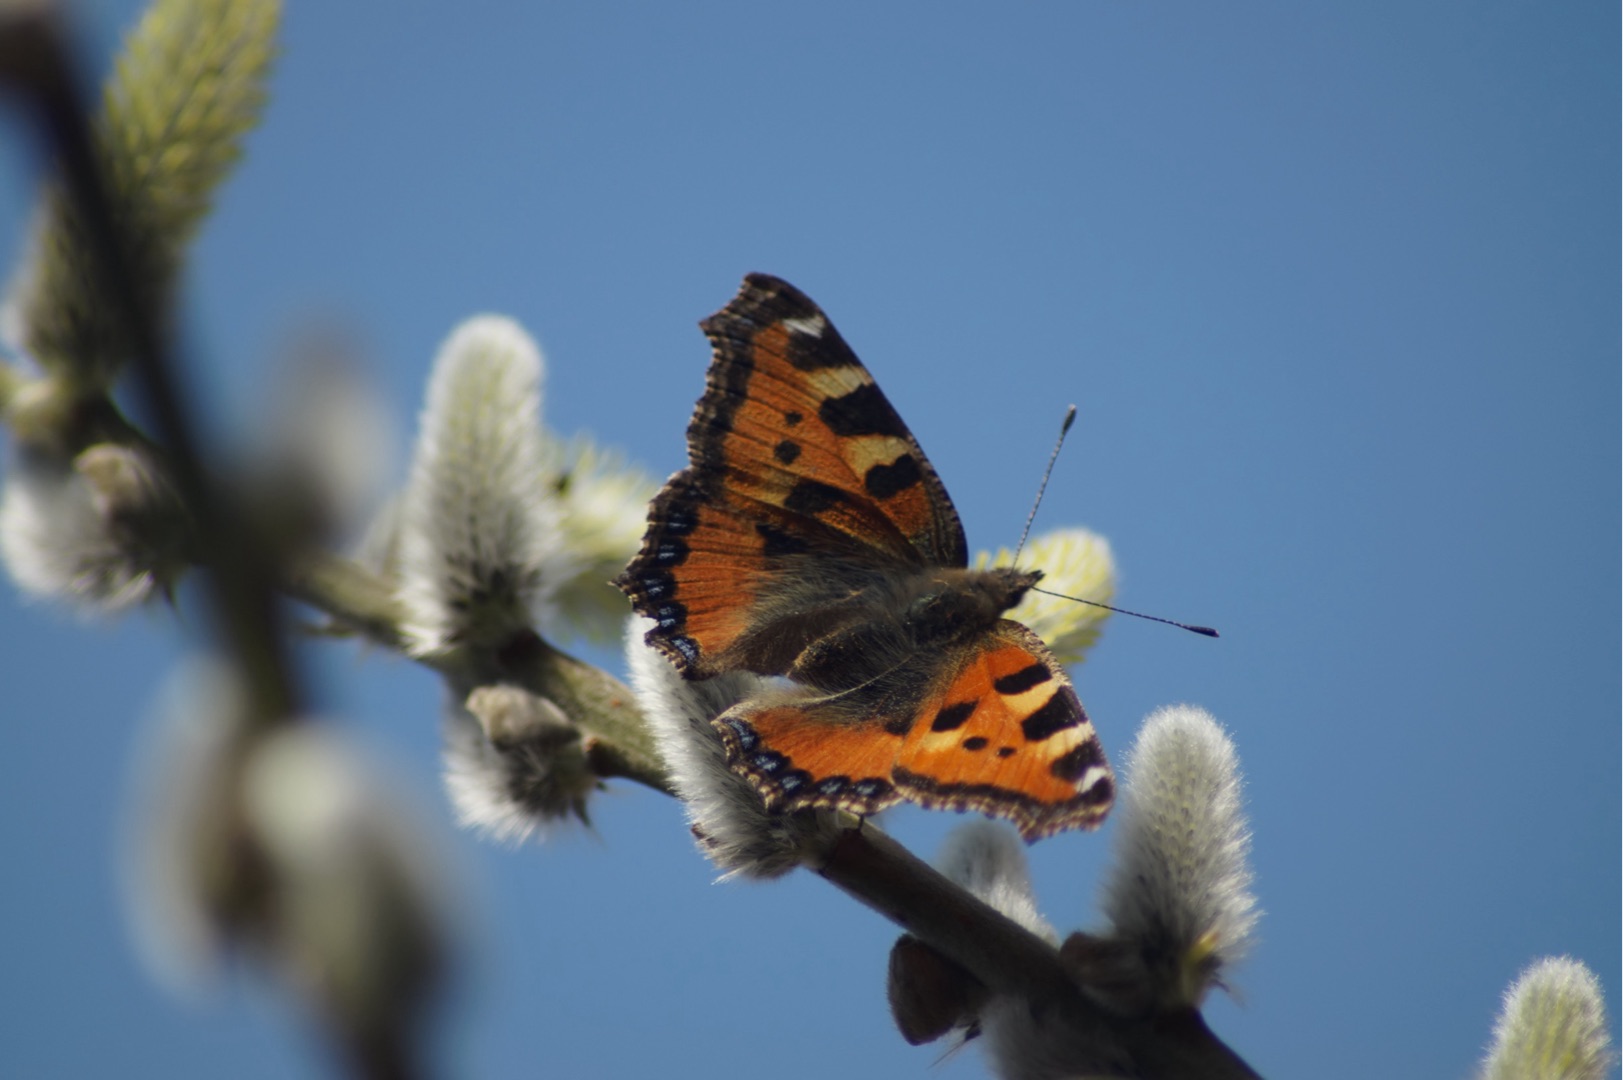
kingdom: Animalia
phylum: Arthropoda
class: Insecta
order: Lepidoptera
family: Nymphalidae
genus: Aglais
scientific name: Aglais urticae
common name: Nældens takvinge
